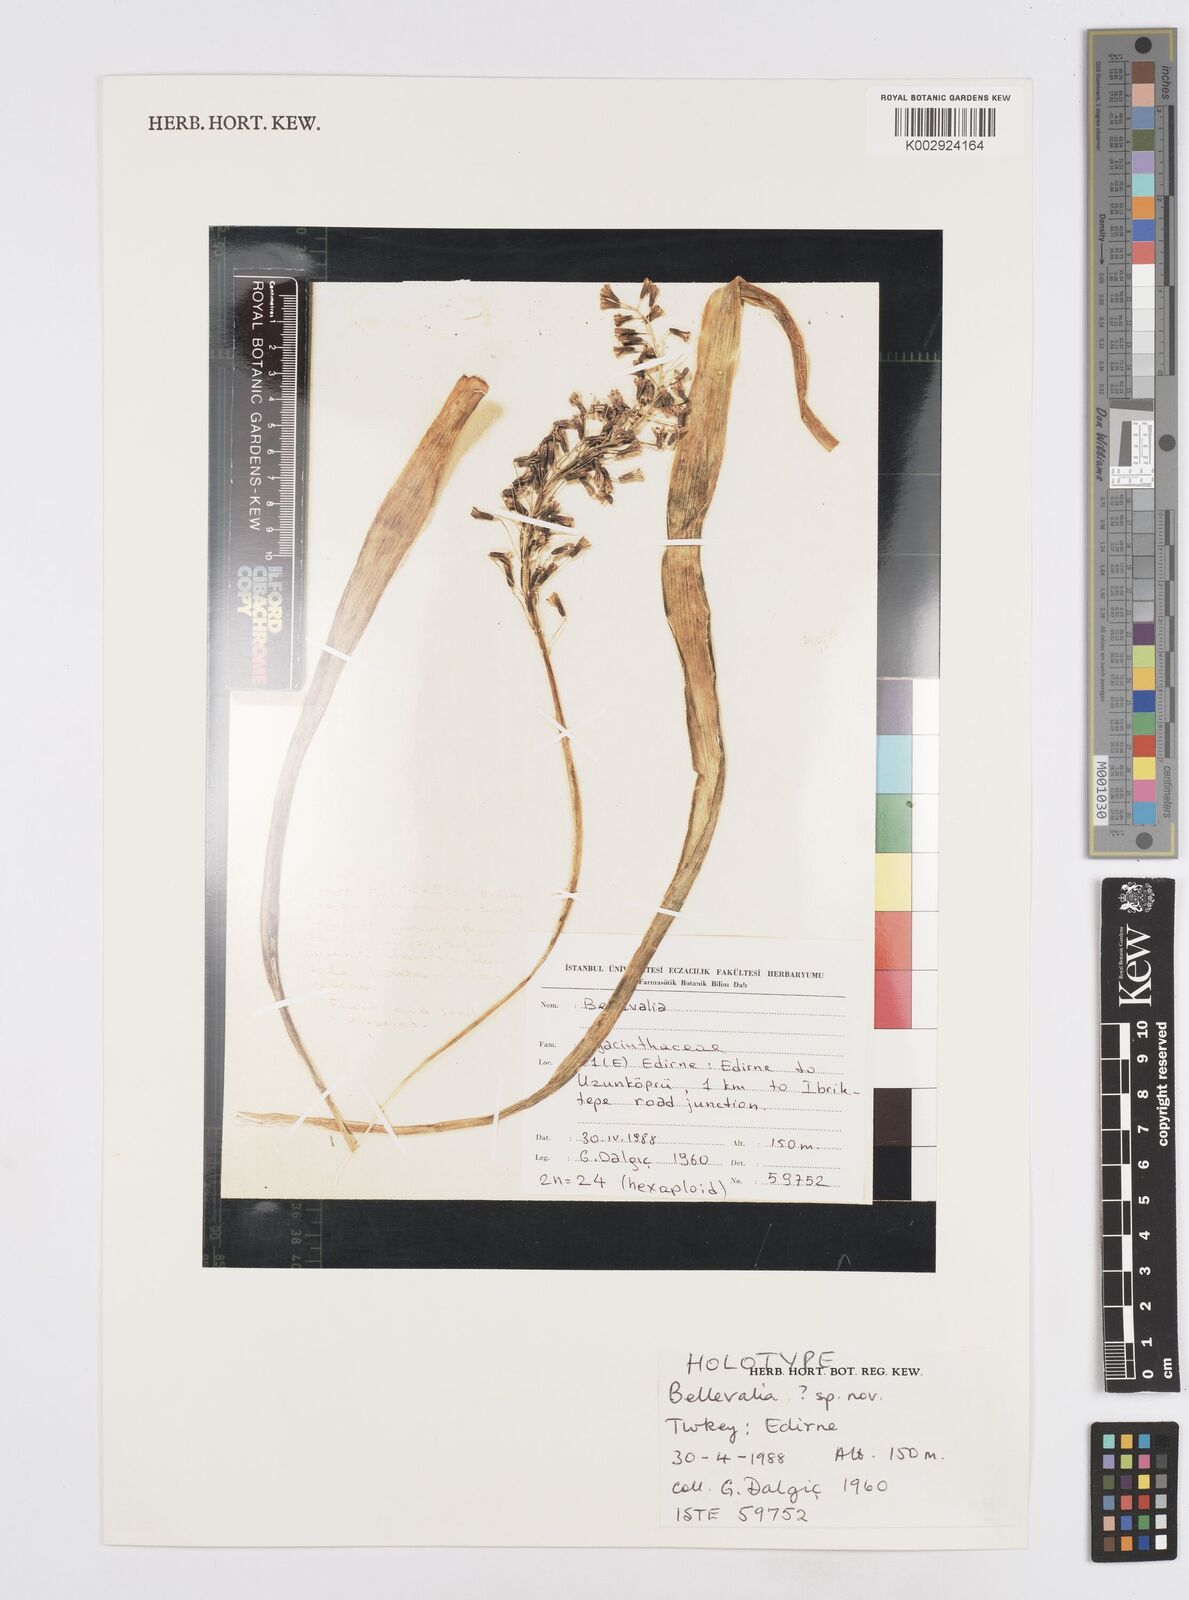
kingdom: Plantae
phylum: Tracheophyta
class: Liliopsida
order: Asparagales
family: Asparagaceae
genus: Bellevalia
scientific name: Bellevalia edirnensis
